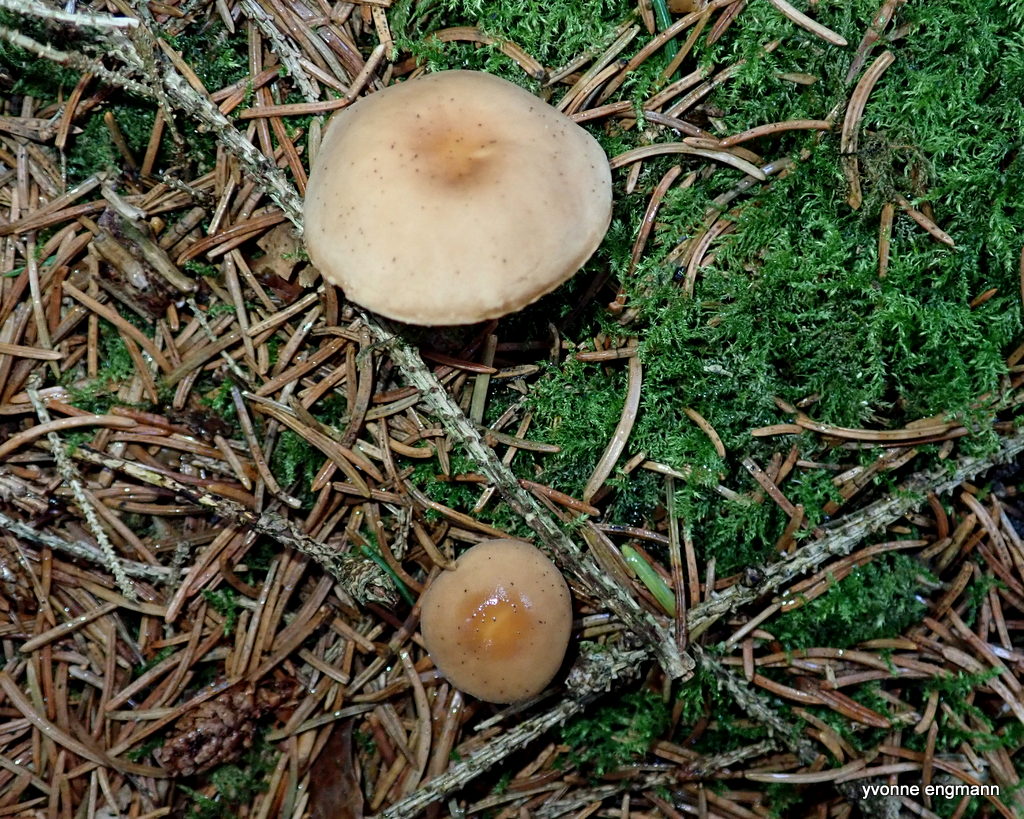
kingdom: Fungi
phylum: Basidiomycota
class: Agaricomycetes
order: Agaricales
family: Omphalotaceae
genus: Gymnopus
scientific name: Gymnopus
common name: fladhat
